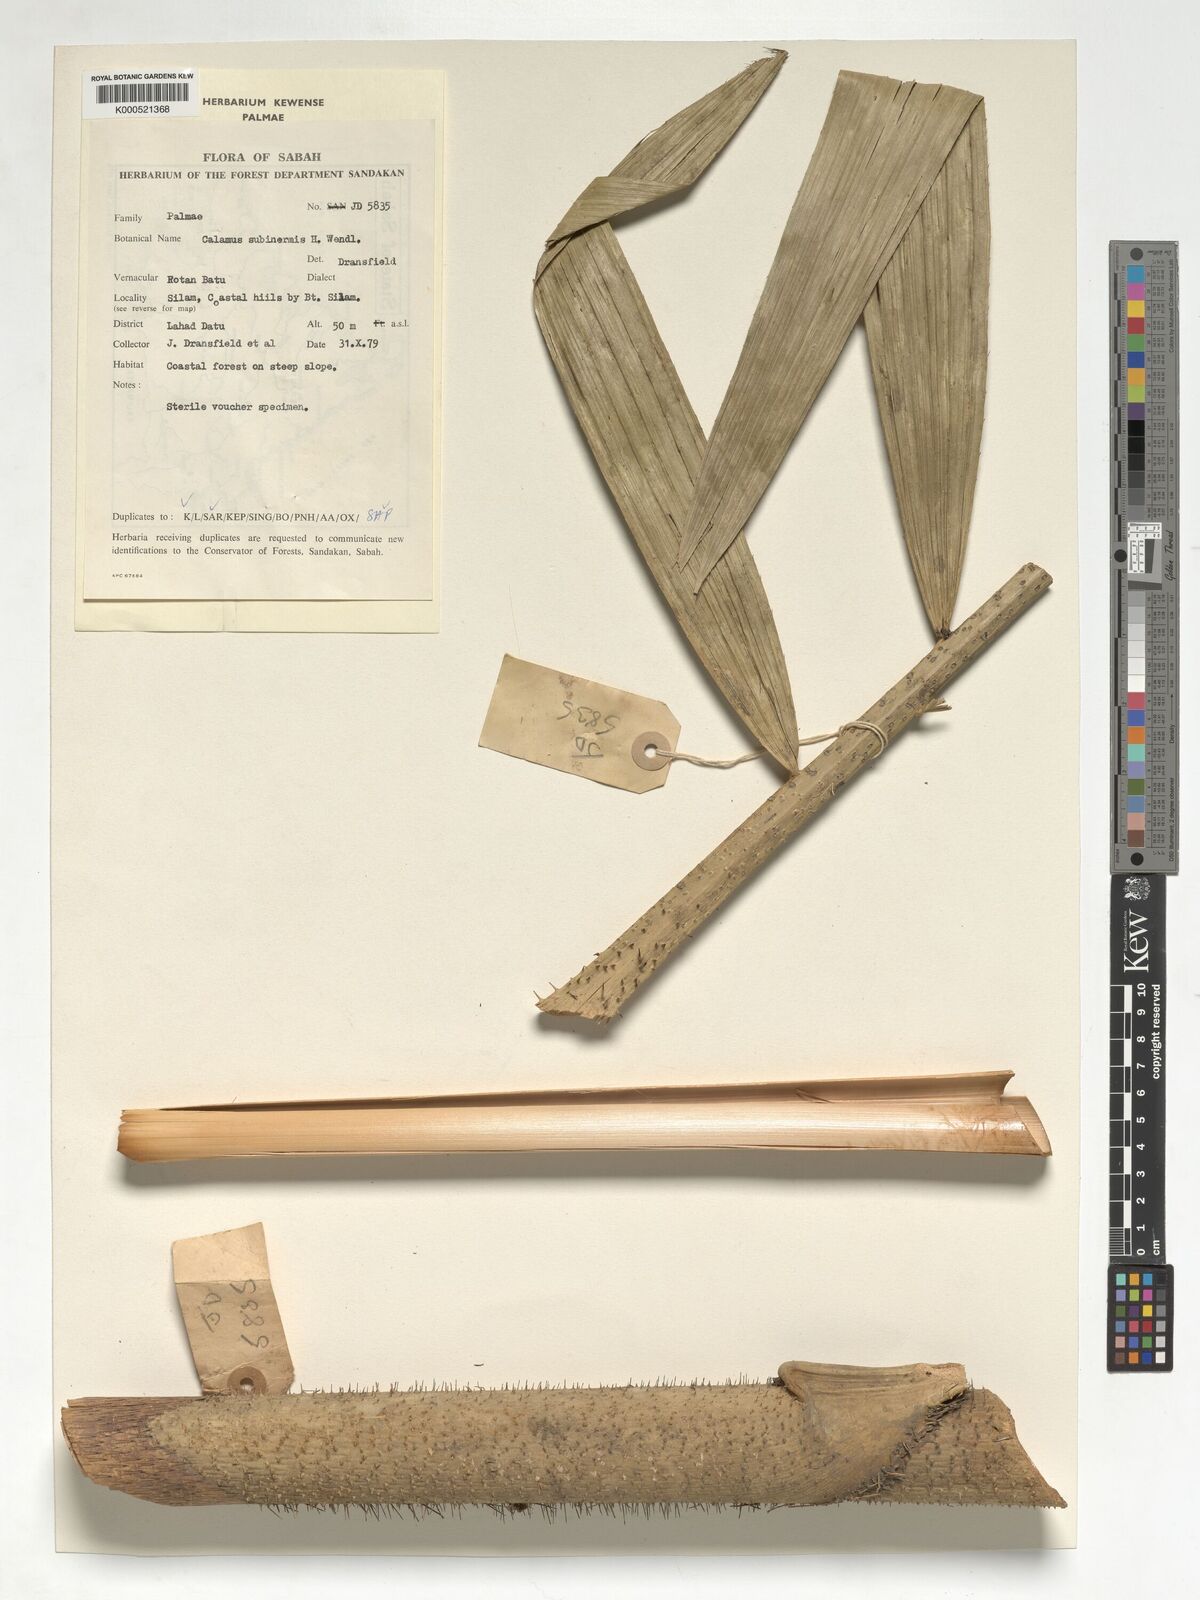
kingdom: Plantae
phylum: Tracheophyta
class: Liliopsida
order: Arecales
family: Arecaceae
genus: Calamus
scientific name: Calamus moseleyanus
